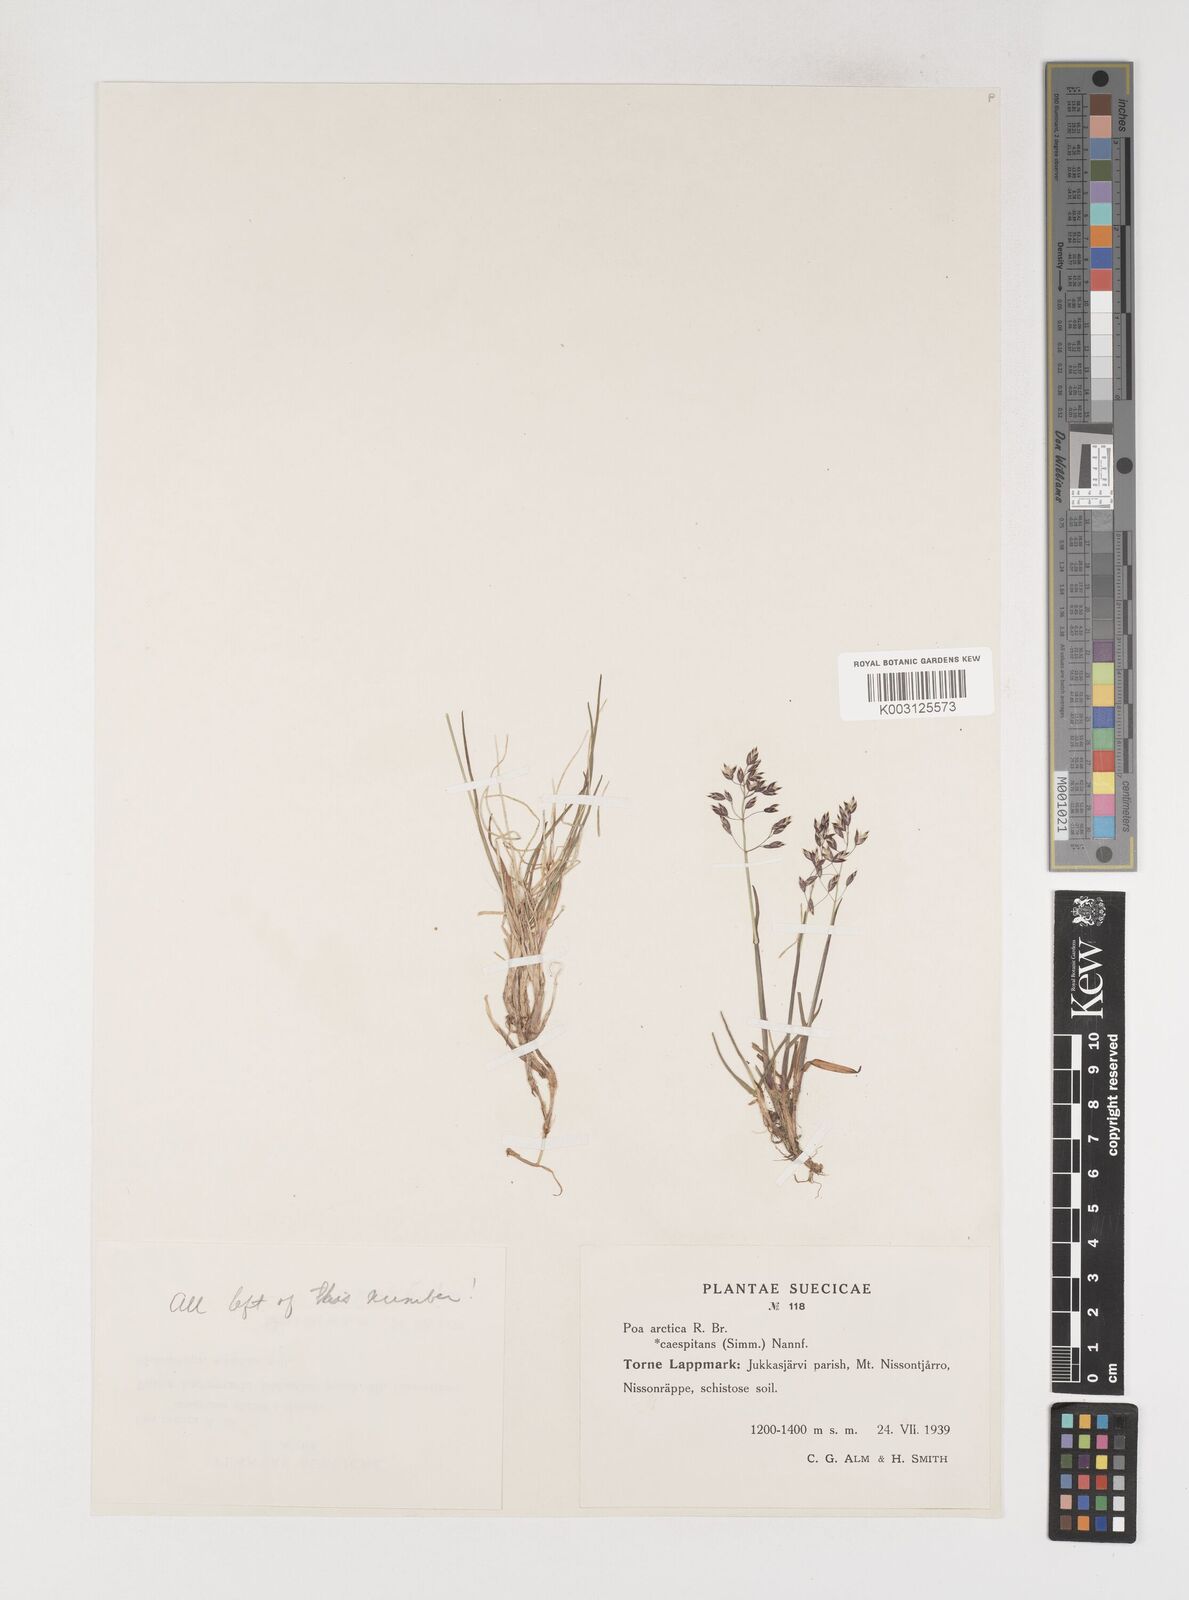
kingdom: Plantae
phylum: Tracheophyta
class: Liliopsida
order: Poales
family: Poaceae
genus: Poa
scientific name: Poa arctica
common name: Arctic bluegrass
